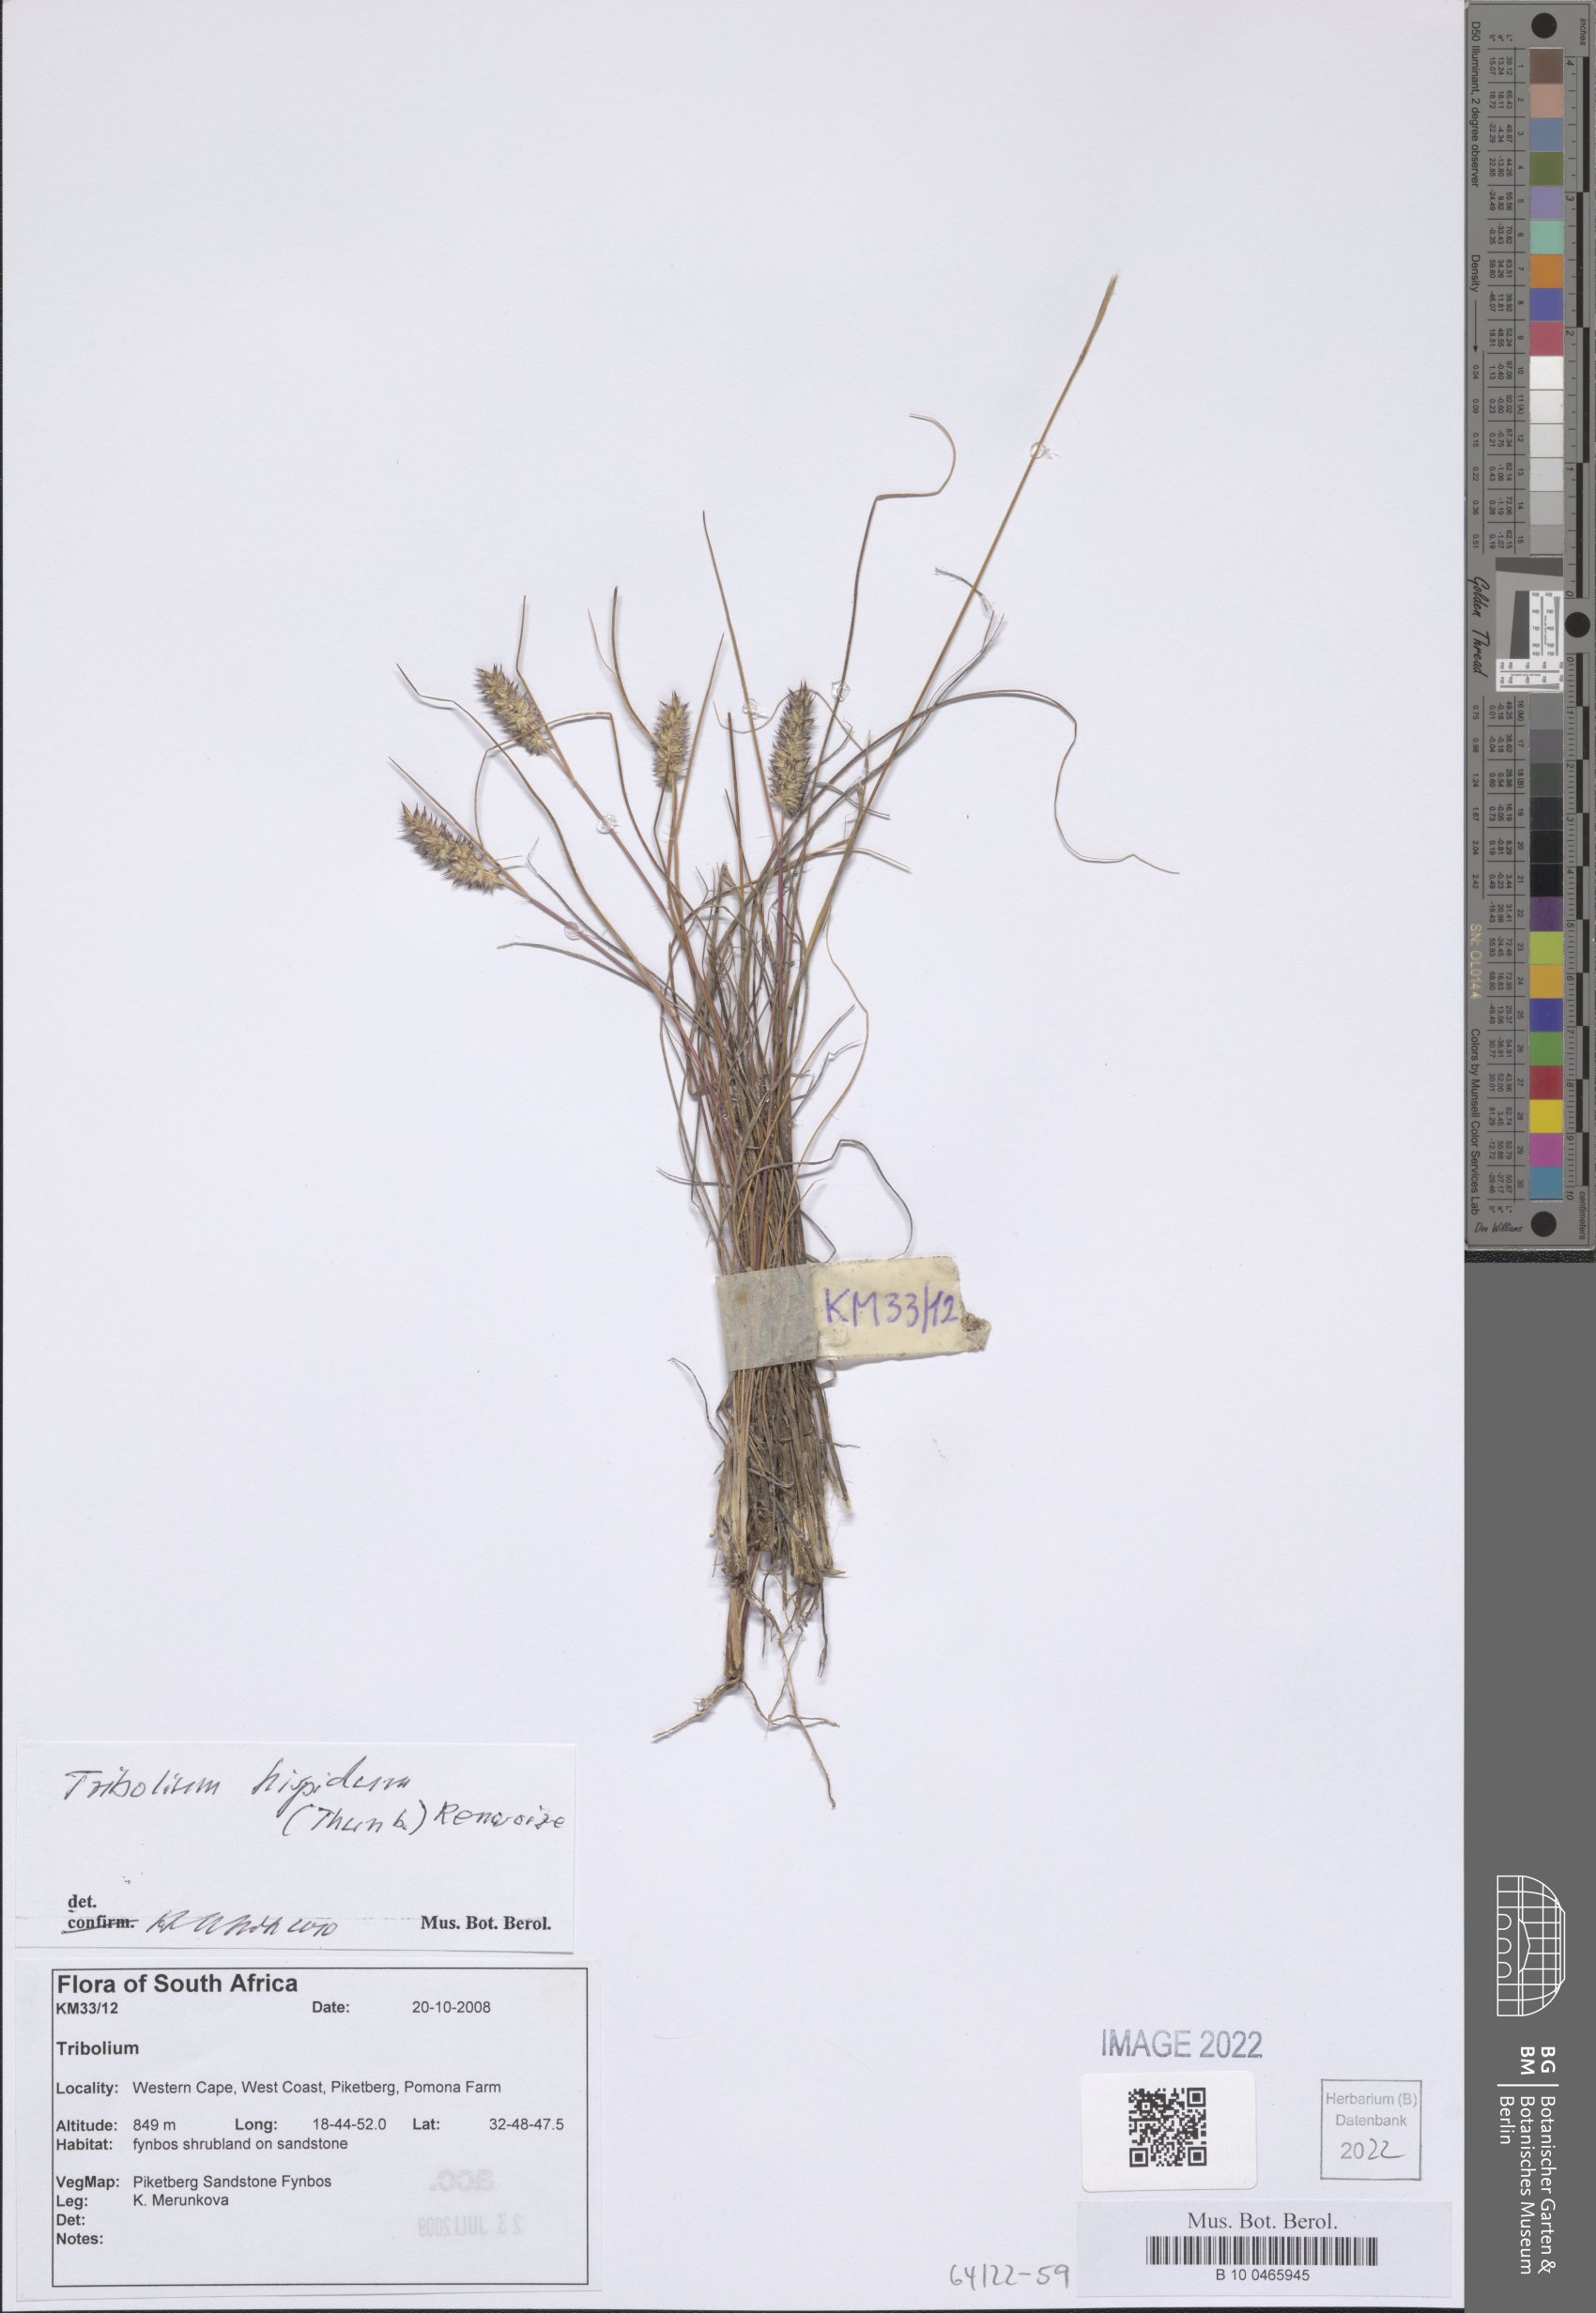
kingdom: Plantae
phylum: Tracheophyta
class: Liliopsida
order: Poales
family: Poaceae
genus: Tribolium
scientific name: Tribolium hispidum
